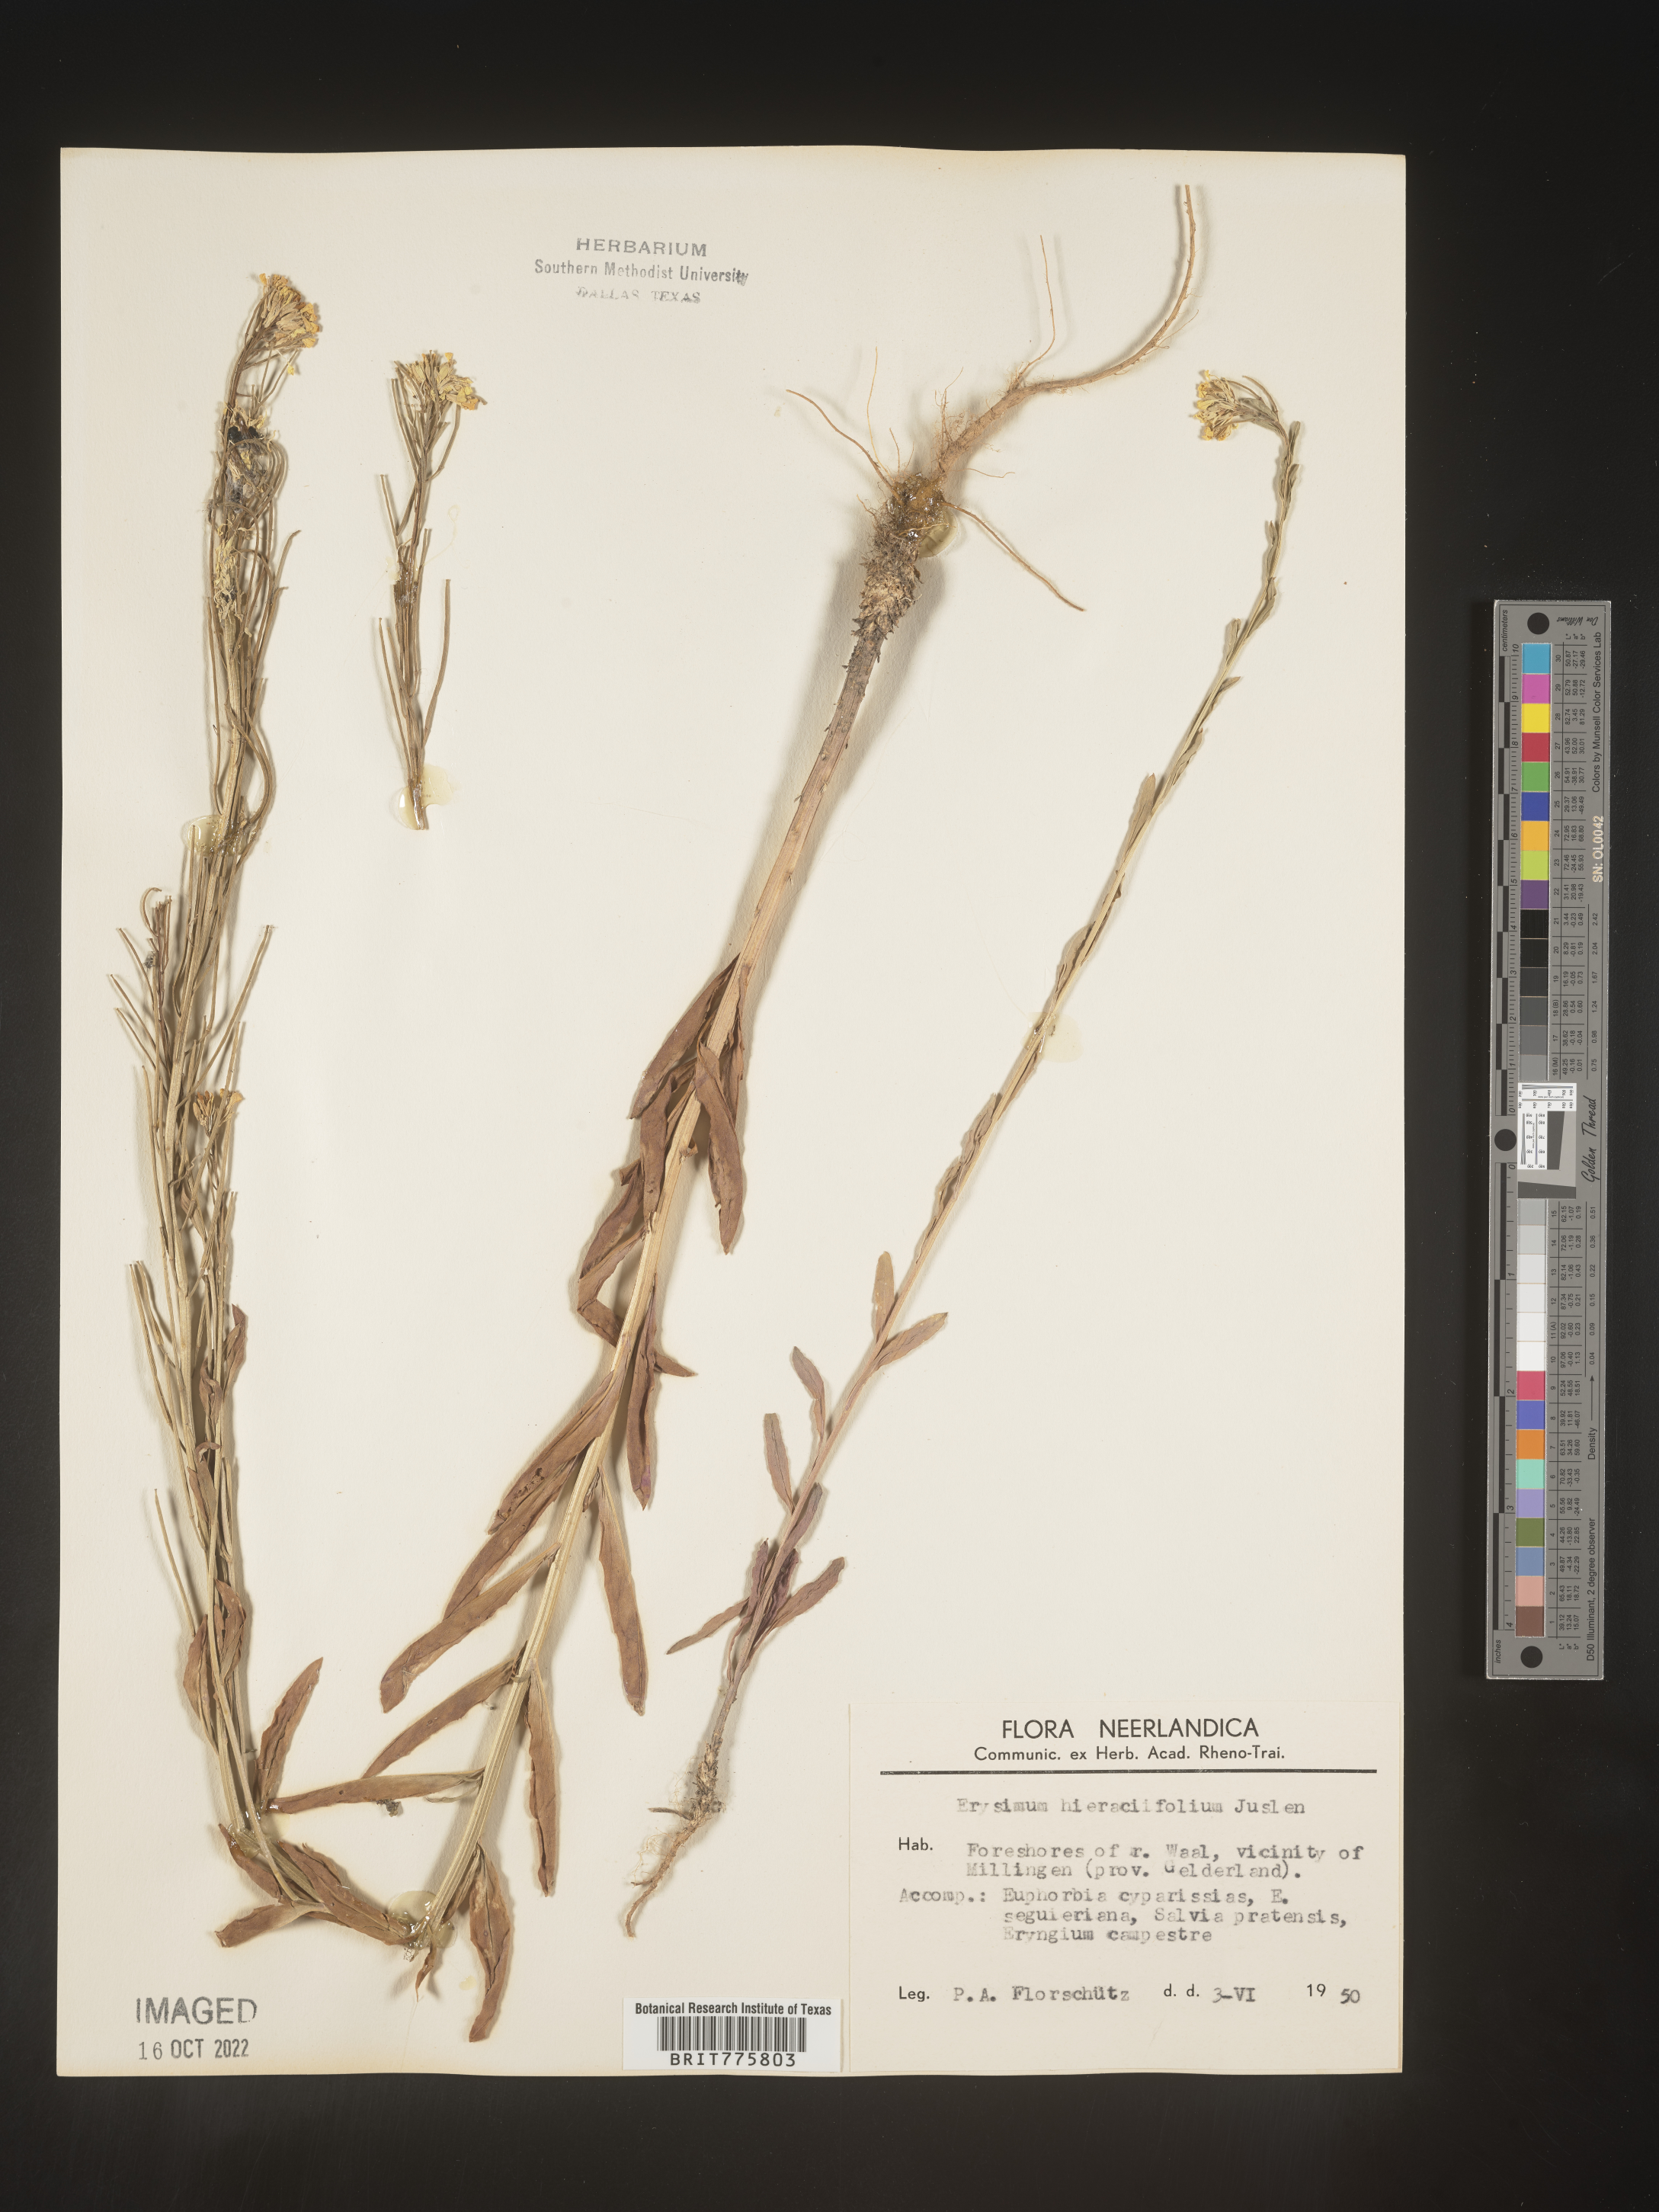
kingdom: Plantae
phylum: Tracheophyta
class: Magnoliopsida
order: Brassicales
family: Brassicaceae
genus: Erysimum
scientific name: Erysimum
